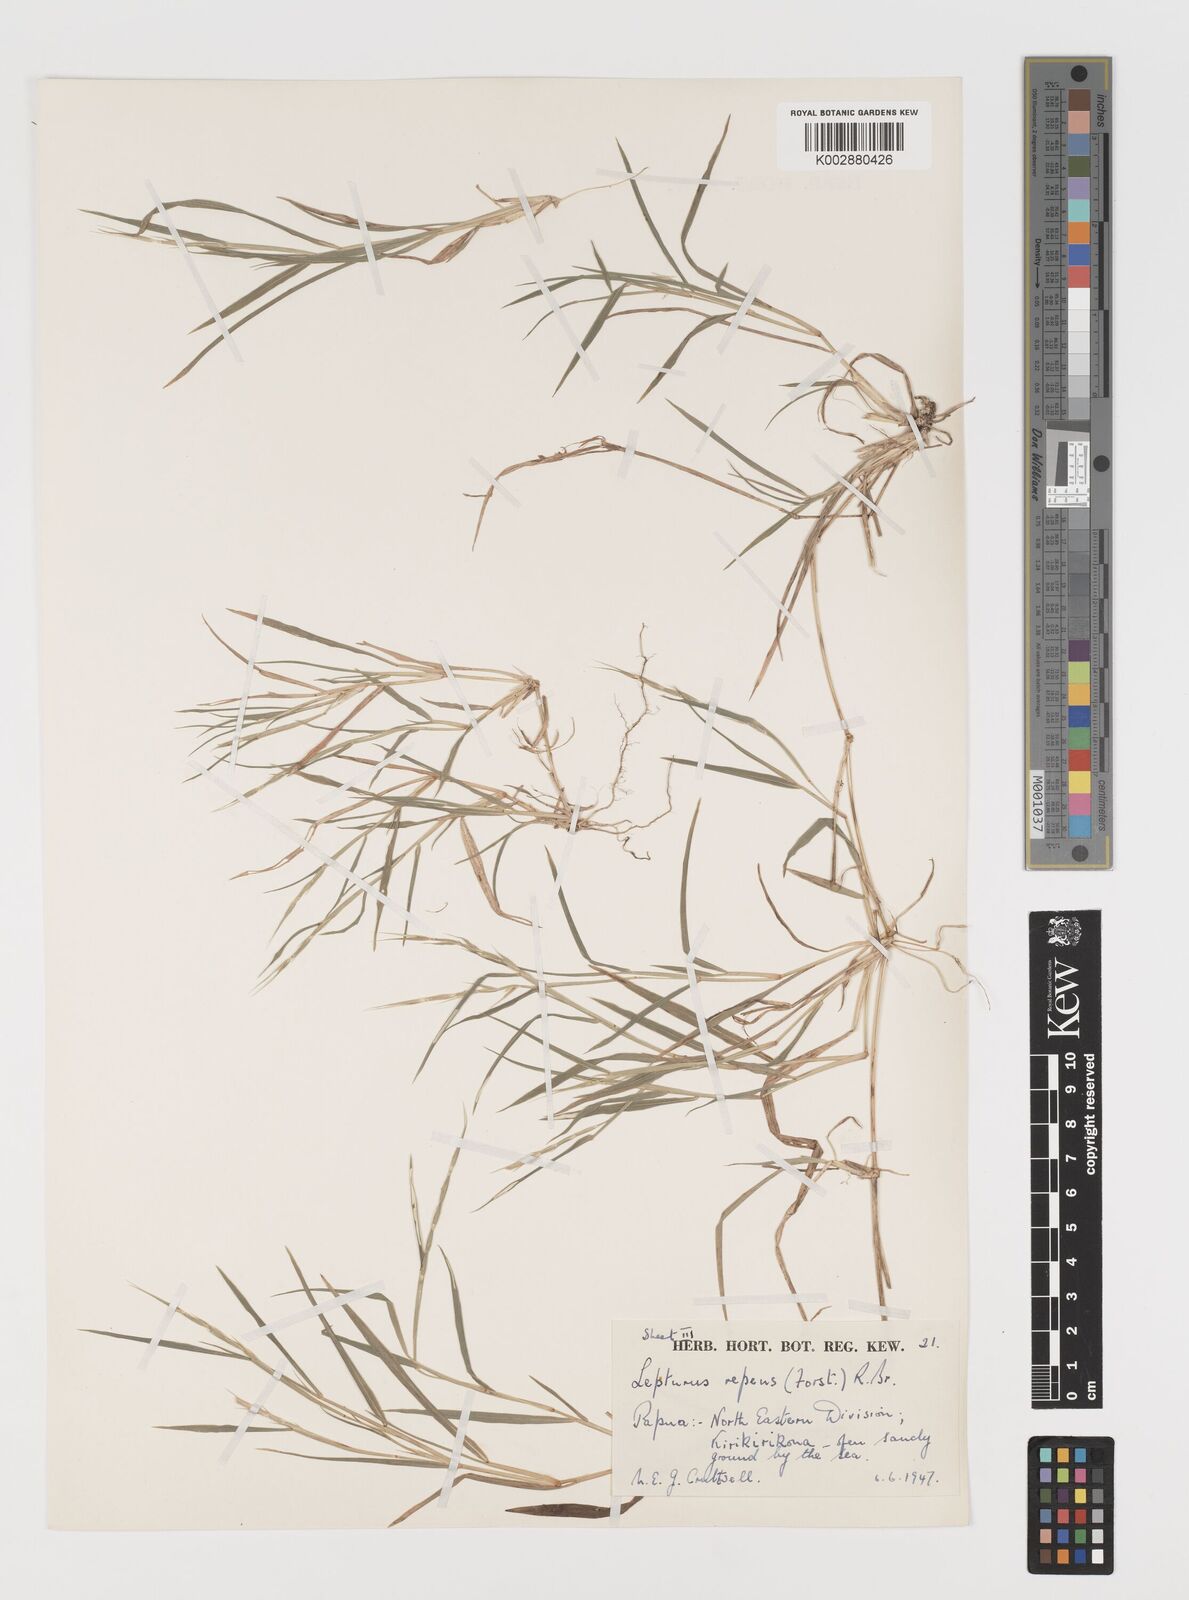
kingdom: Plantae
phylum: Tracheophyta
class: Liliopsida
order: Poales
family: Poaceae
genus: Lepturus
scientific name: Lepturus repens
